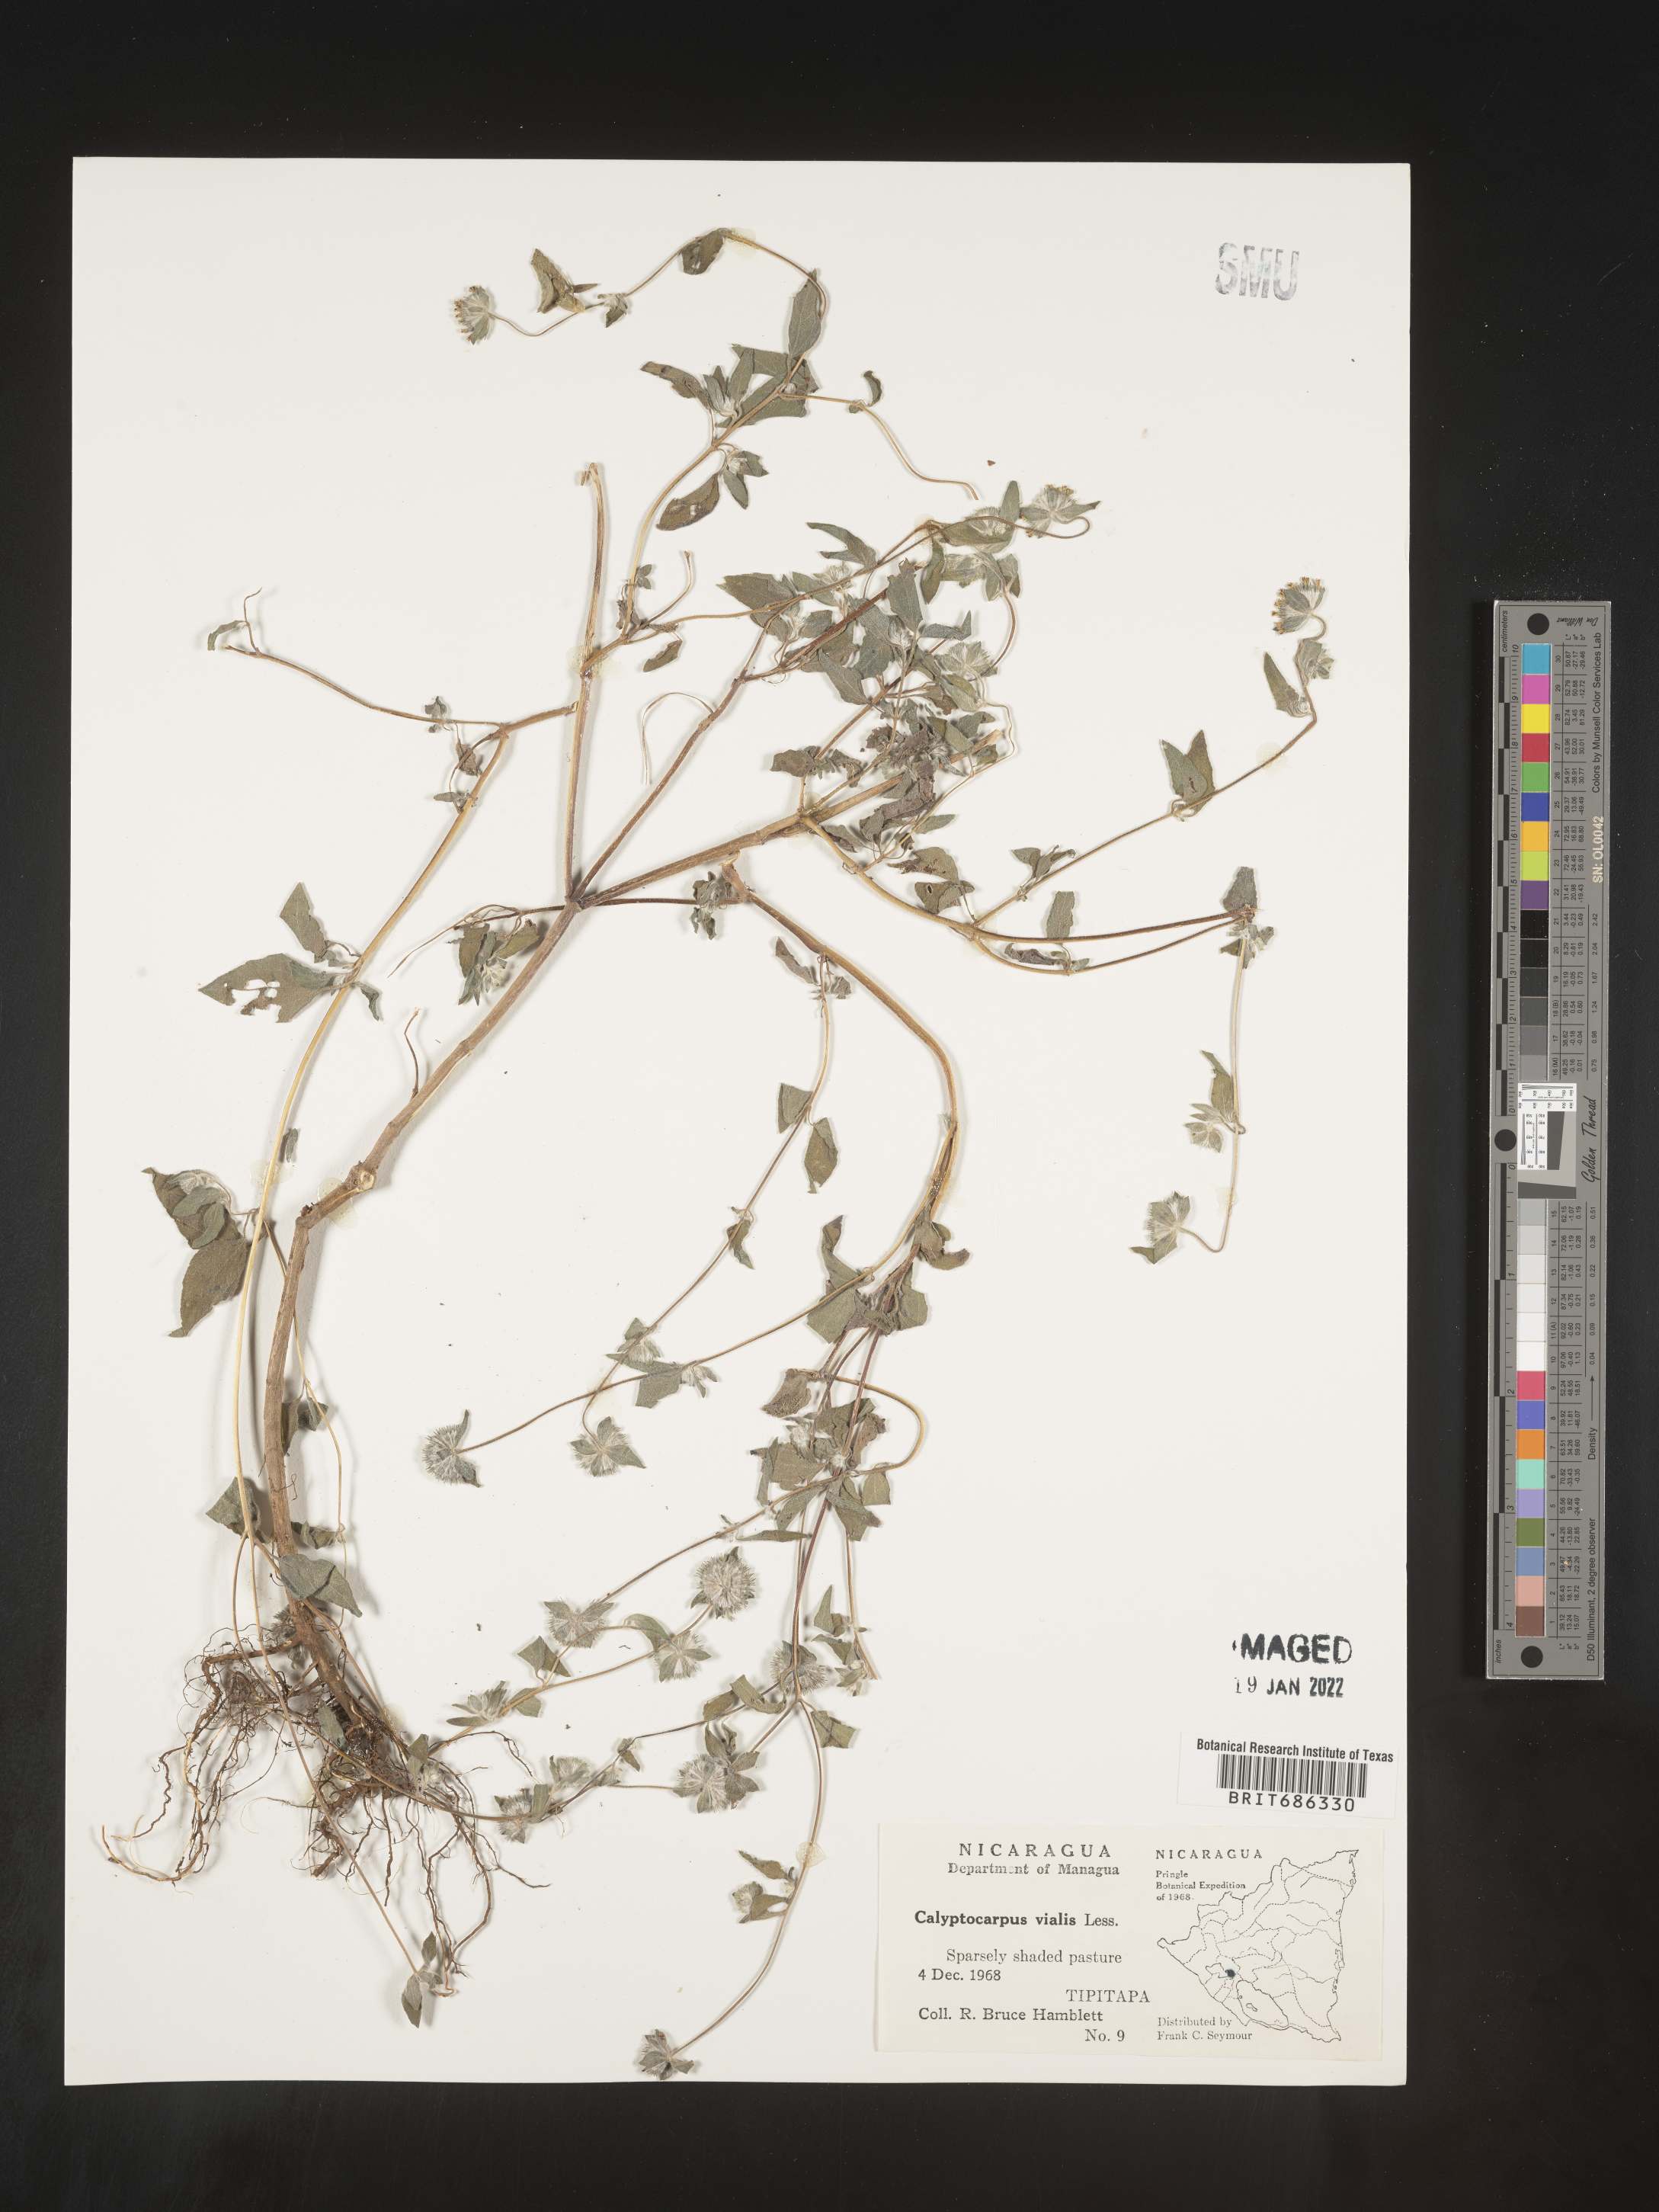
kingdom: Plantae
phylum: Tracheophyta
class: Magnoliopsida
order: Asterales
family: Asteraceae
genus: Calyptocarpus
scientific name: Calyptocarpus
